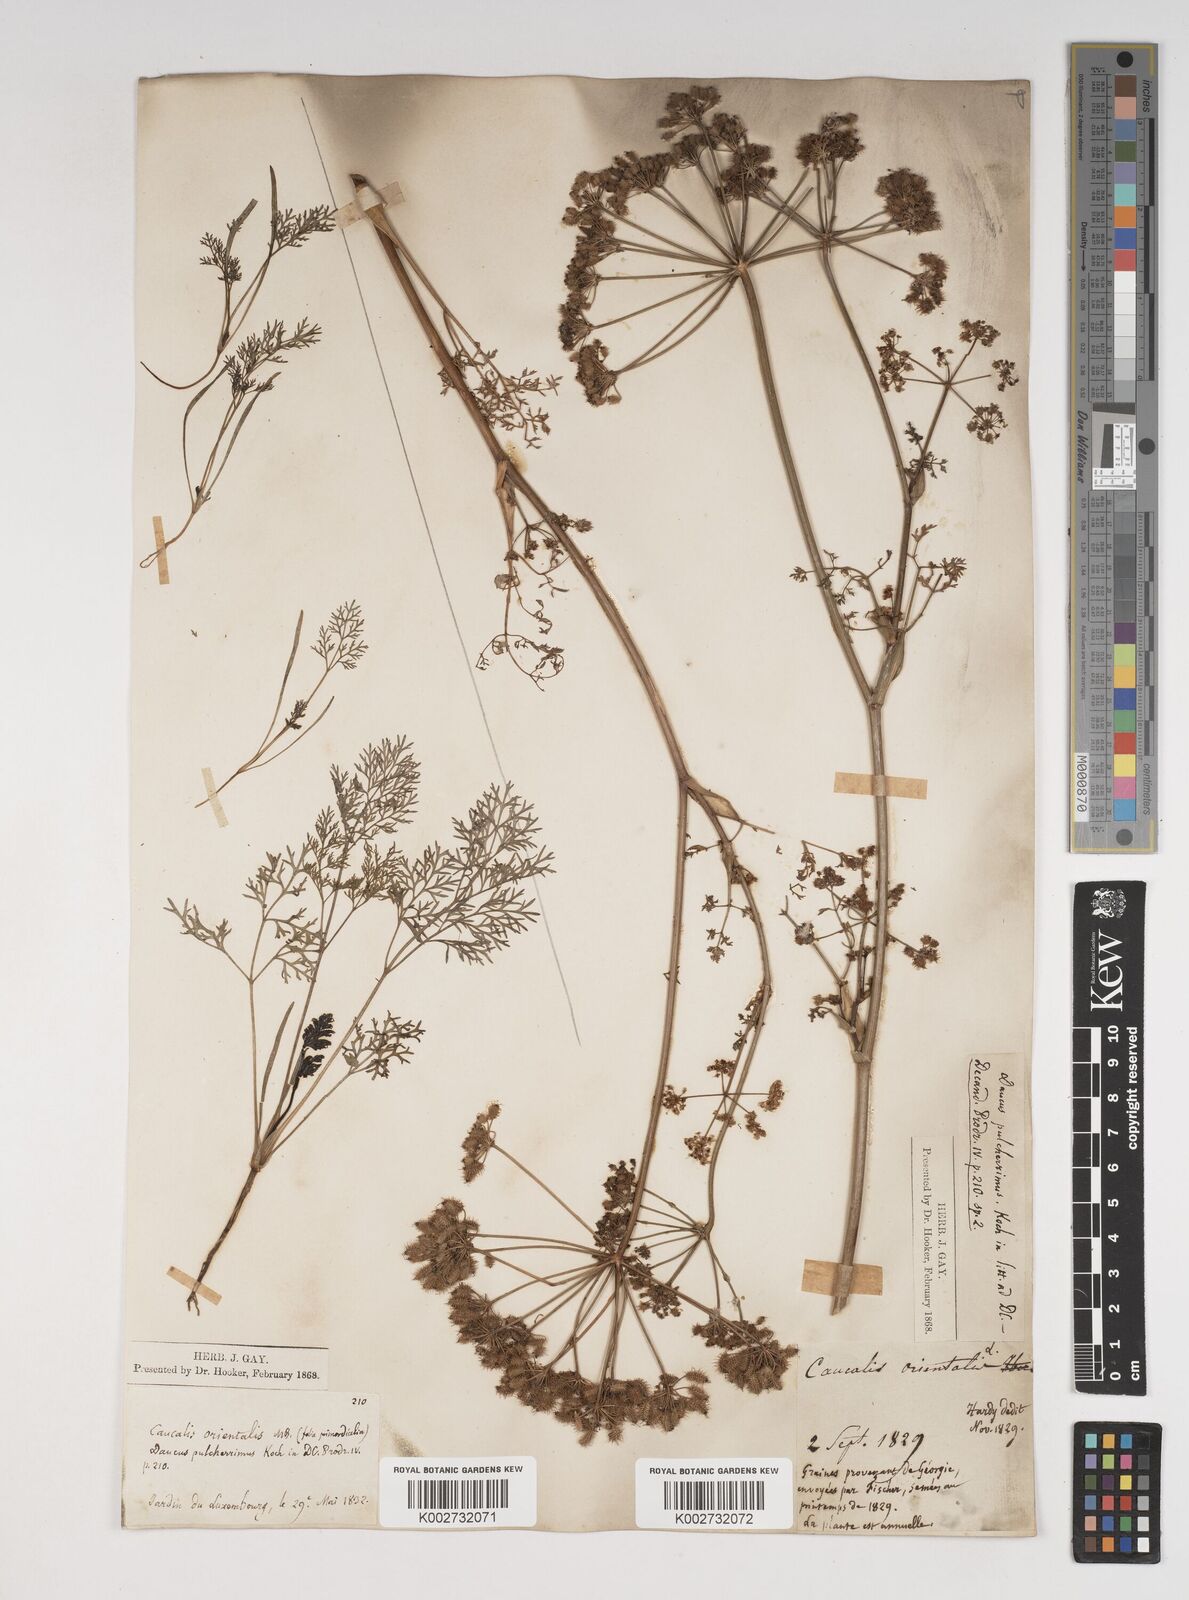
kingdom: Plantae
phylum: Tracheophyta
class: Magnoliopsida
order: Apiales
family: Apiaceae
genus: Astrodaucus
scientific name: Astrodaucus
